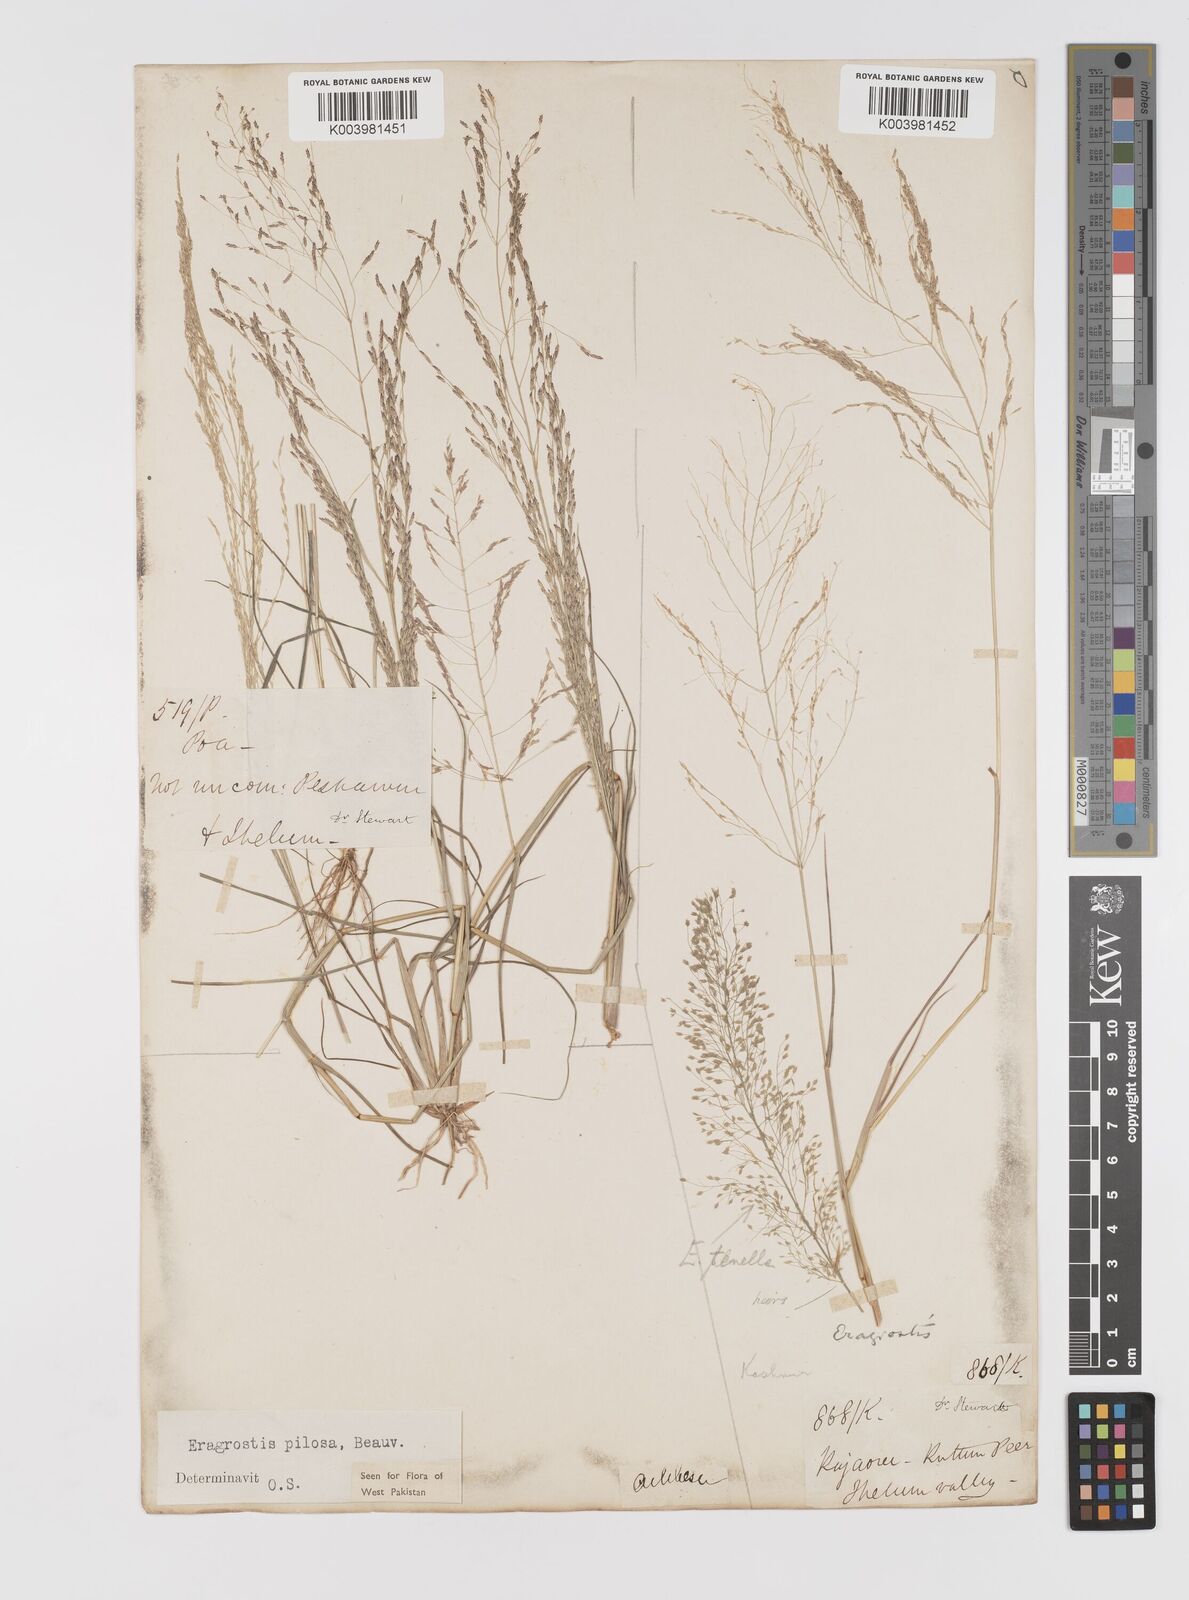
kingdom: Plantae
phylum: Tracheophyta
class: Liliopsida
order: Poales
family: Poaceae
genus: Eragrostis
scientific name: Eragrostis pilosa
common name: Indian lovegrass
